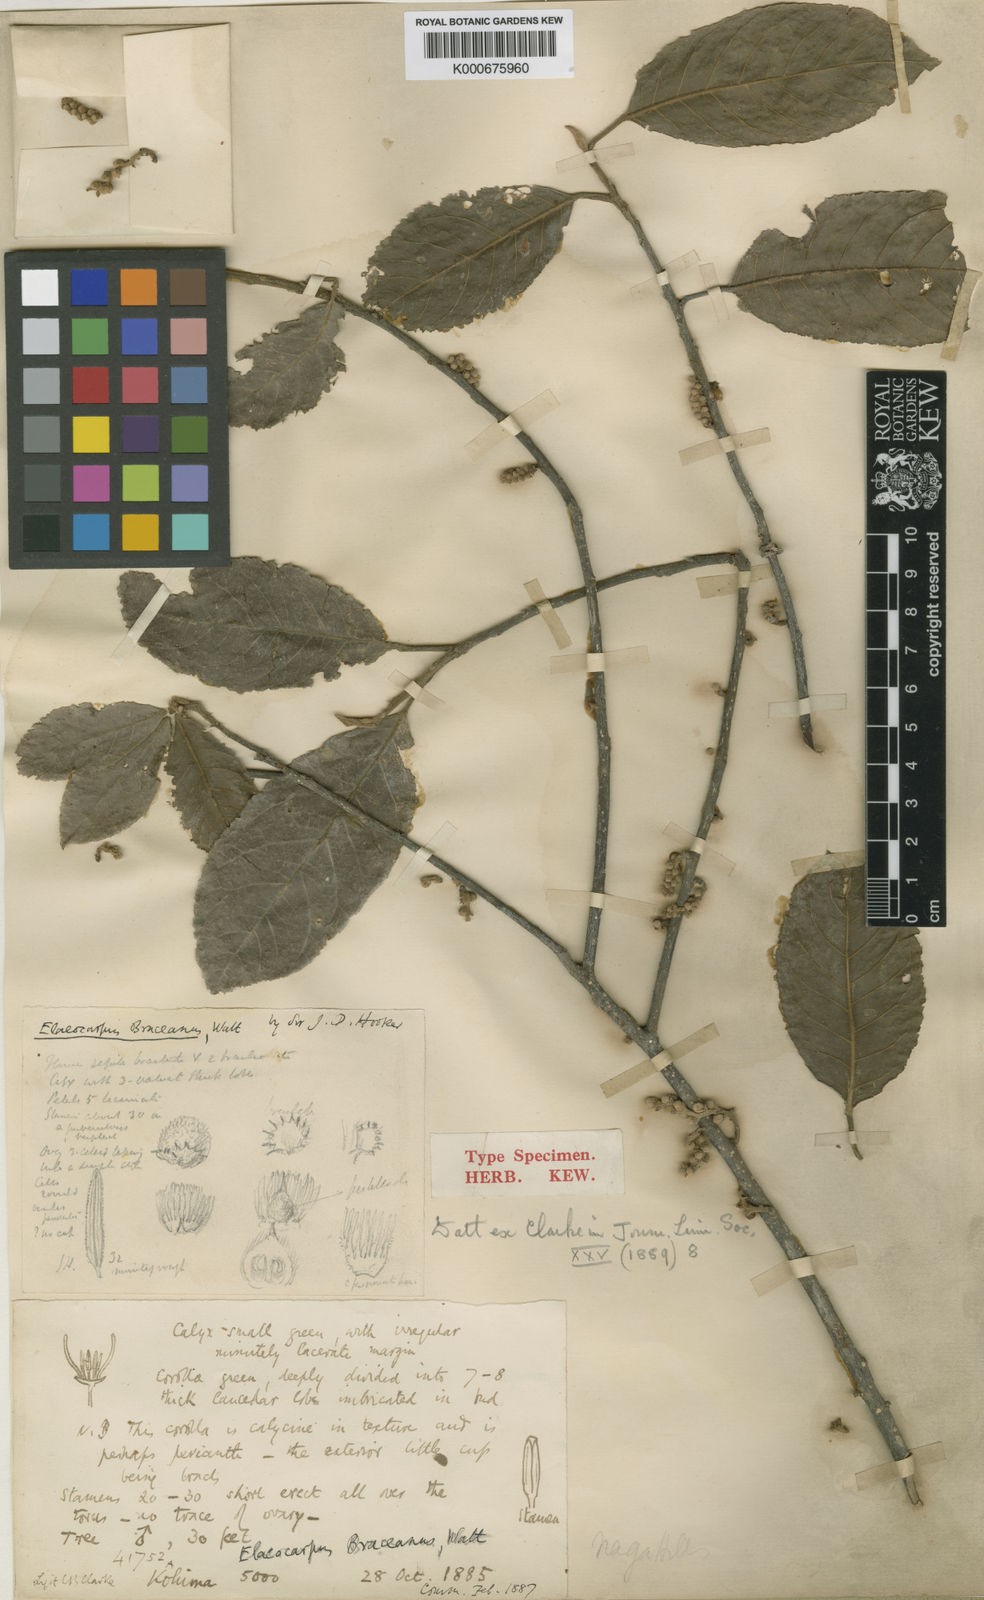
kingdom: Plantae
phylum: Tracheophyta
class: Magnoliopsida
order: Oxalidales
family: Elaeocarpaceae
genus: Elaeocarpus
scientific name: Elaeocarpus braceanus
